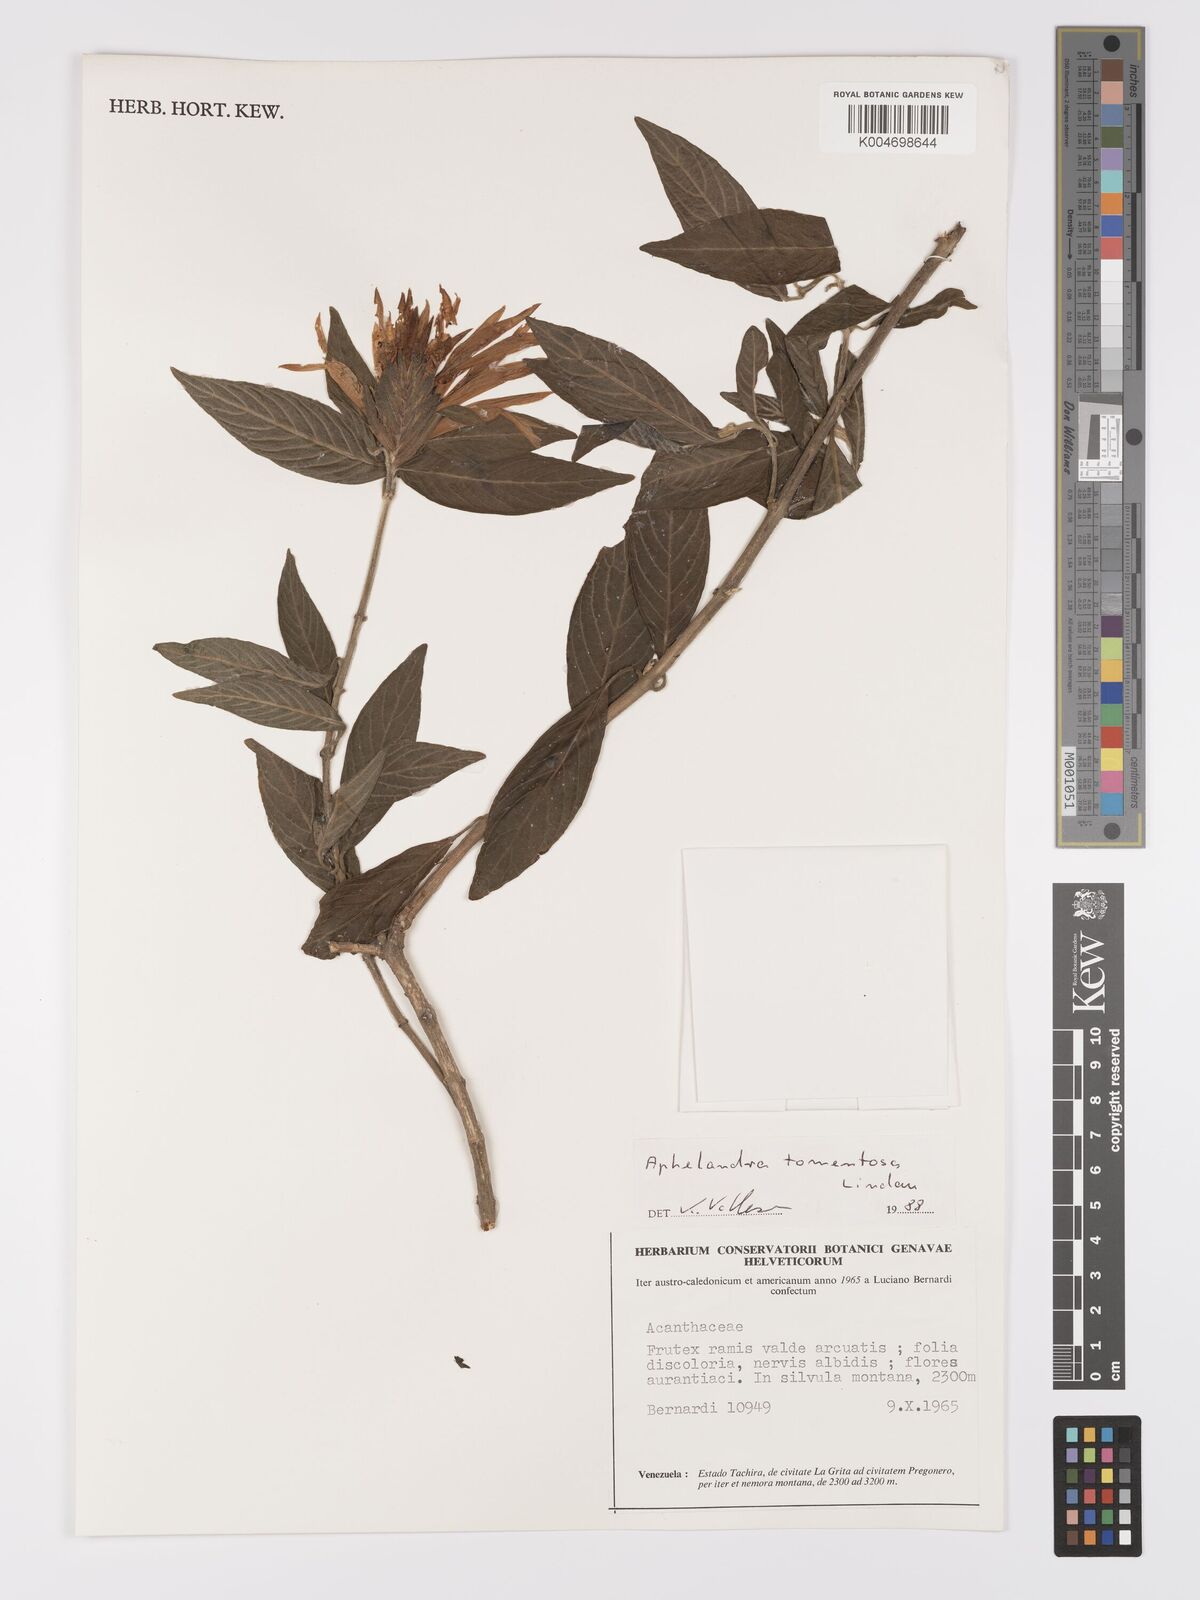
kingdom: Plantae
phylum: Tracheophyta
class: Magnoliopsida
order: Lamiales
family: Acanthaceae
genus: Aphelandra
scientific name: Aphelandra tomentosa
